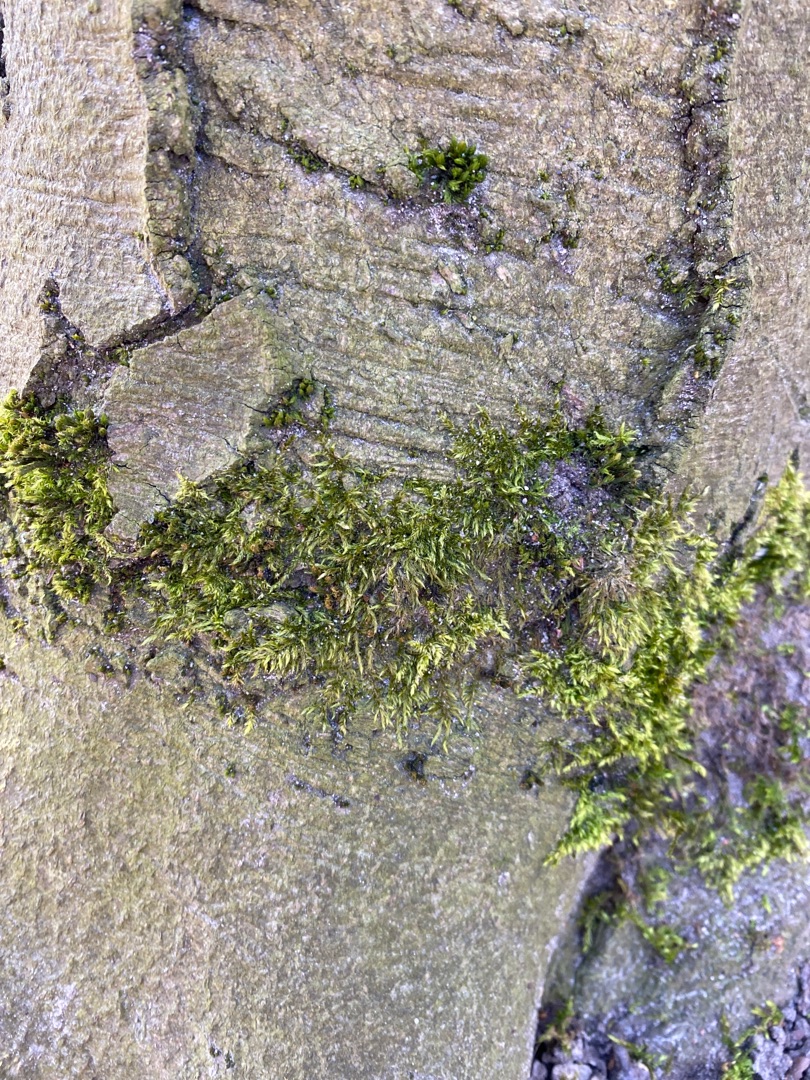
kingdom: Plantae
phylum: Bryophyta
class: Bryopsida
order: Hypnales
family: Brachytheciaceae
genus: Brachythecium
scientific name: Brachythecium rutabulum
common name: Almindelig kortkapsel
